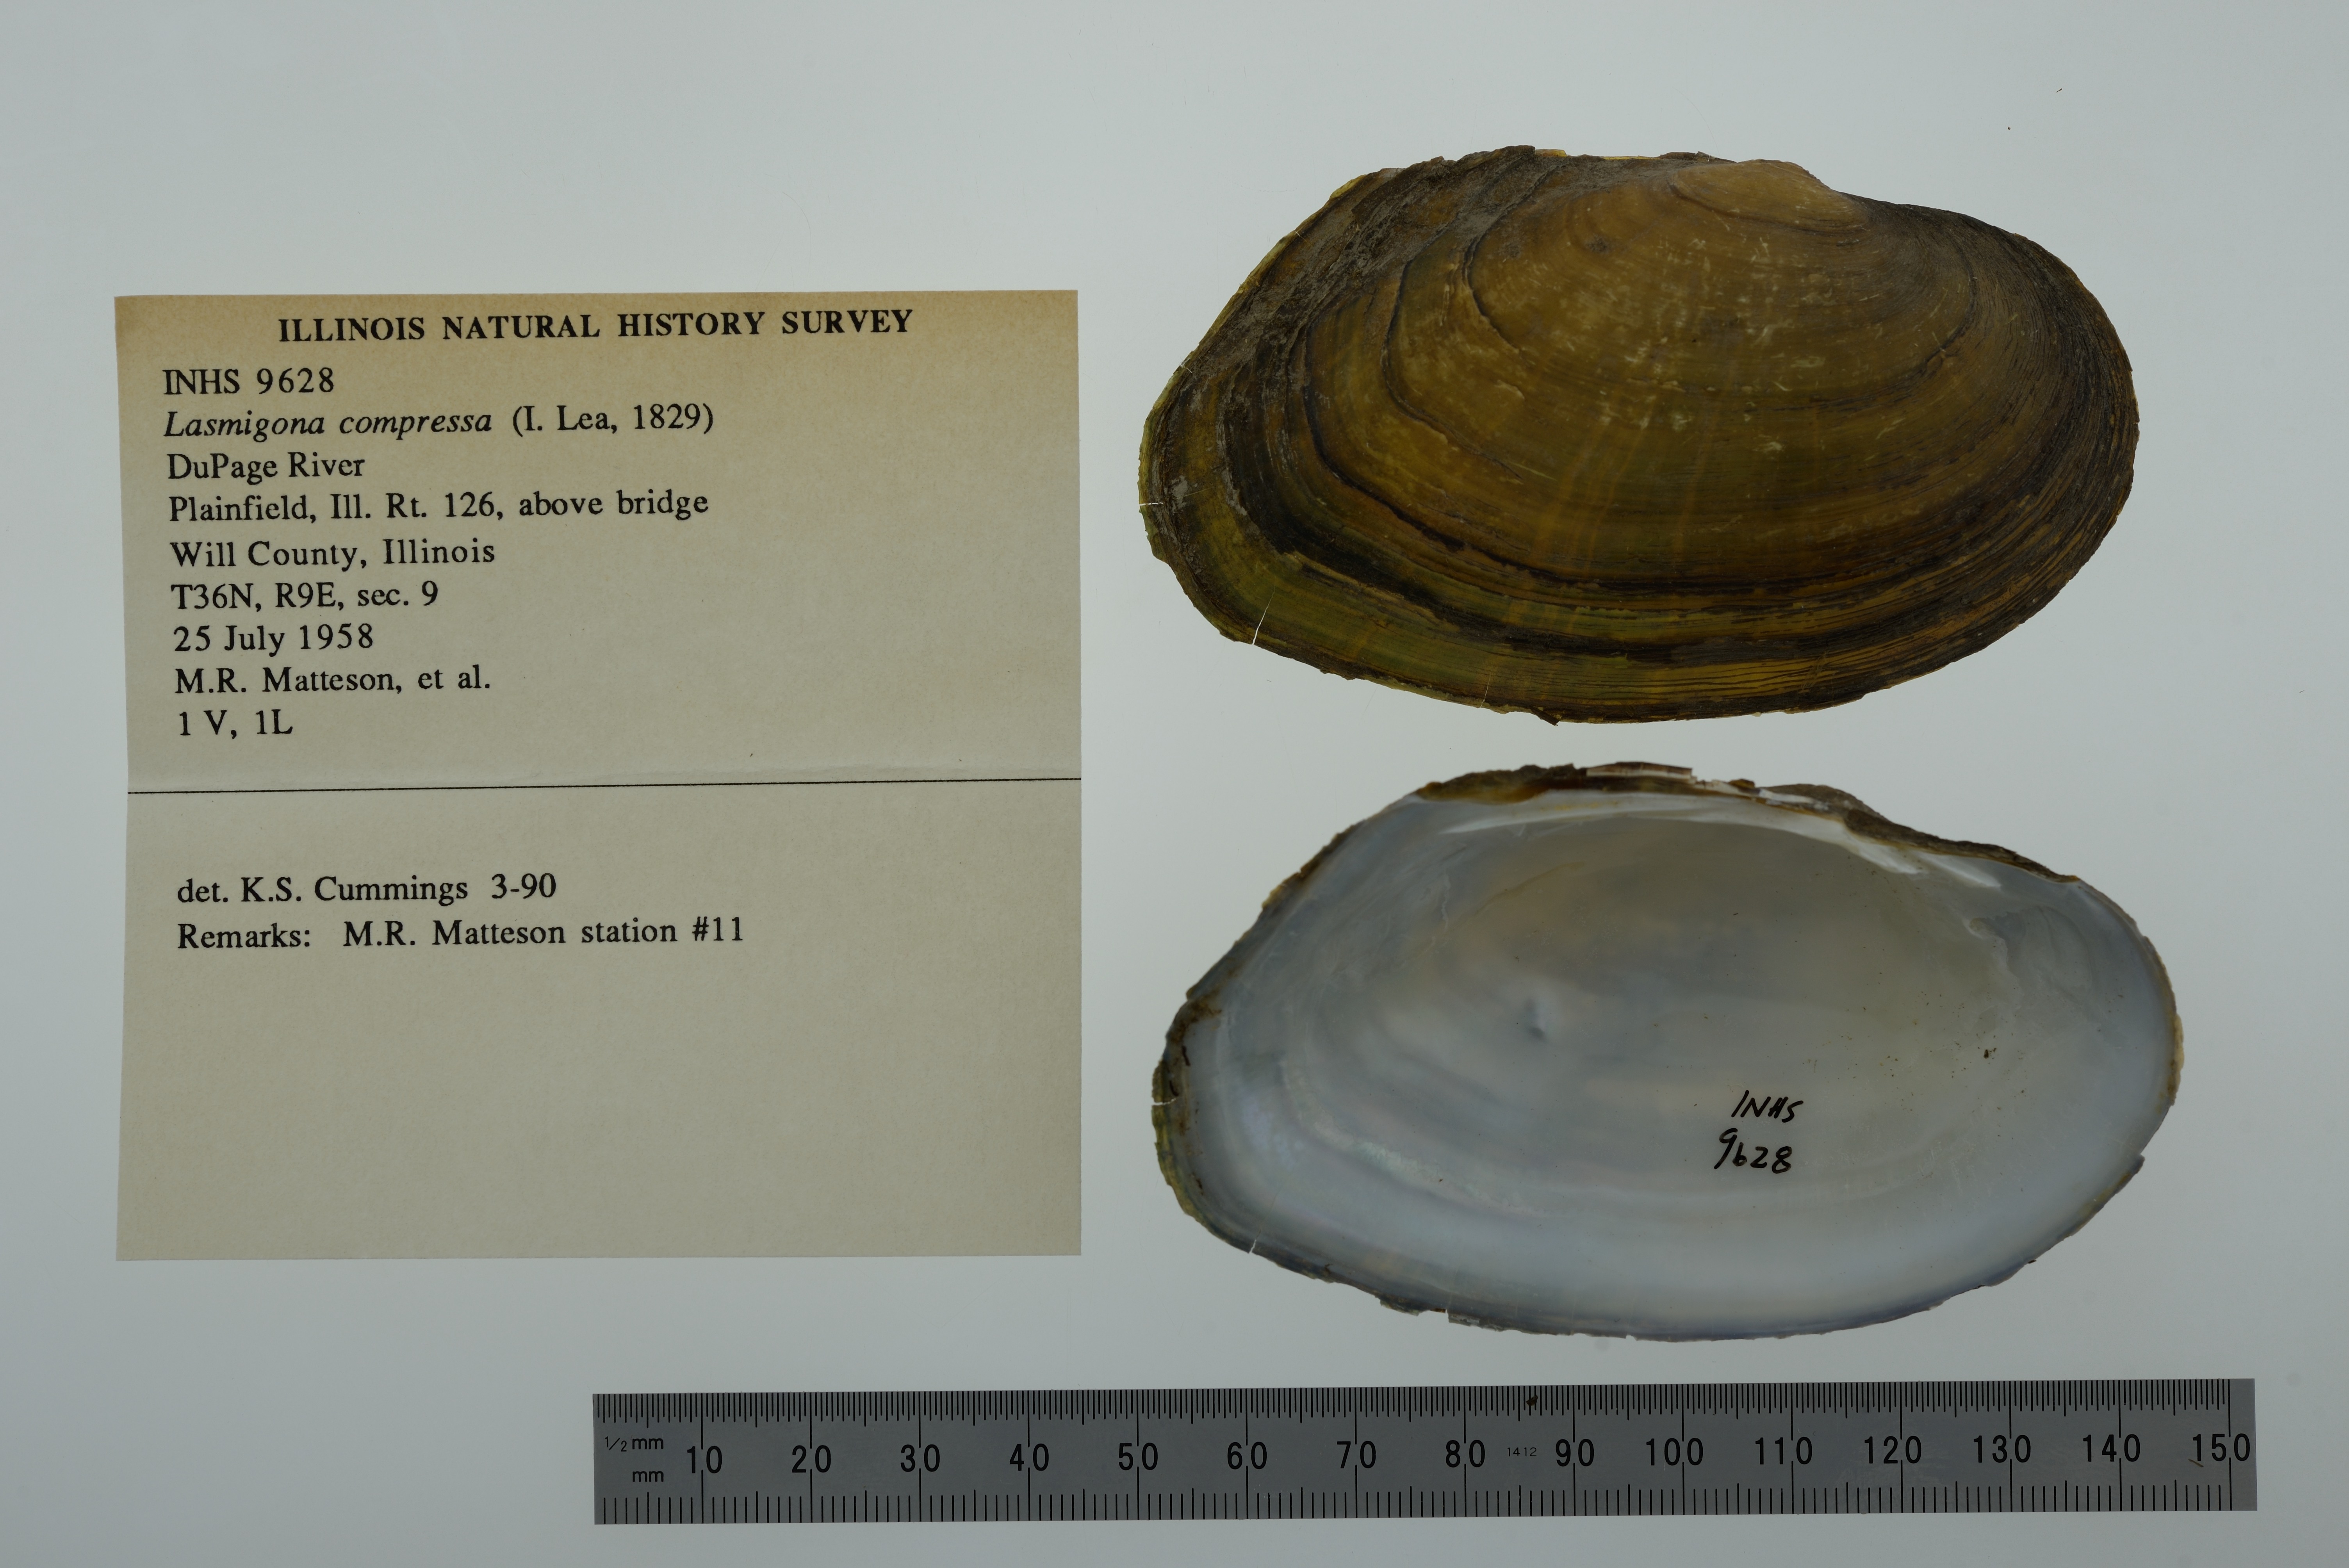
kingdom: Animalia
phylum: Mollusca
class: Bivalvia
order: Unionida
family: Unionidae
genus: Lasmigona
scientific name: Lasmigona compressa
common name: Creek heelsplitter
